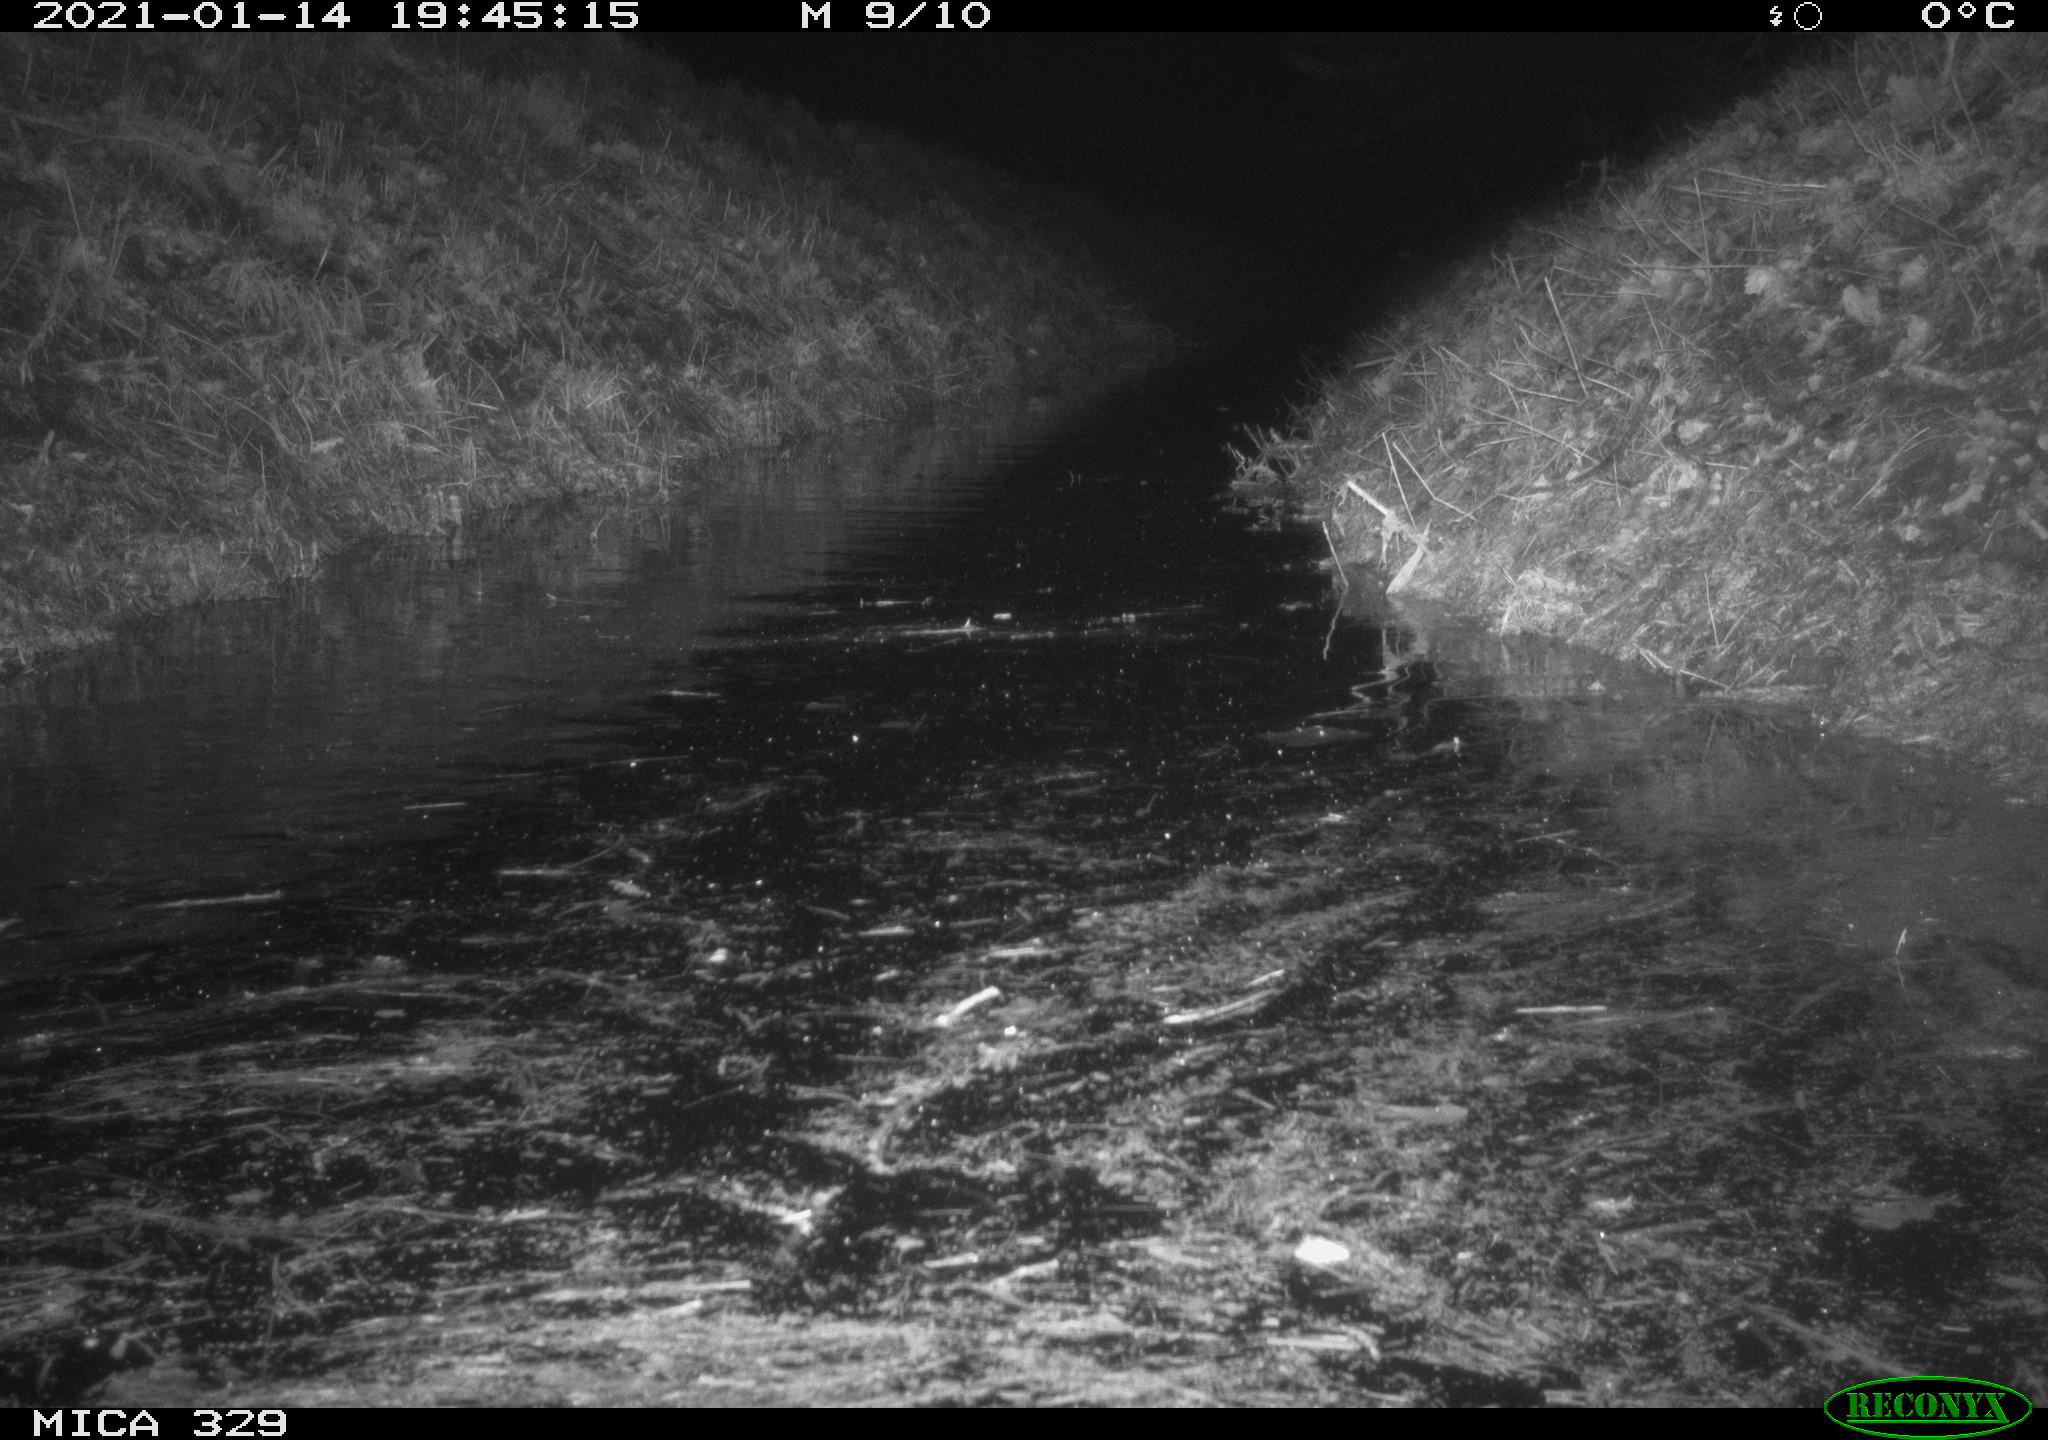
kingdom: Animalia
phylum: Chordata
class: Mammalia
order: Rodentia
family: Myocastoridae
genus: Myocastor
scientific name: Myocastor coypus
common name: Coypu
